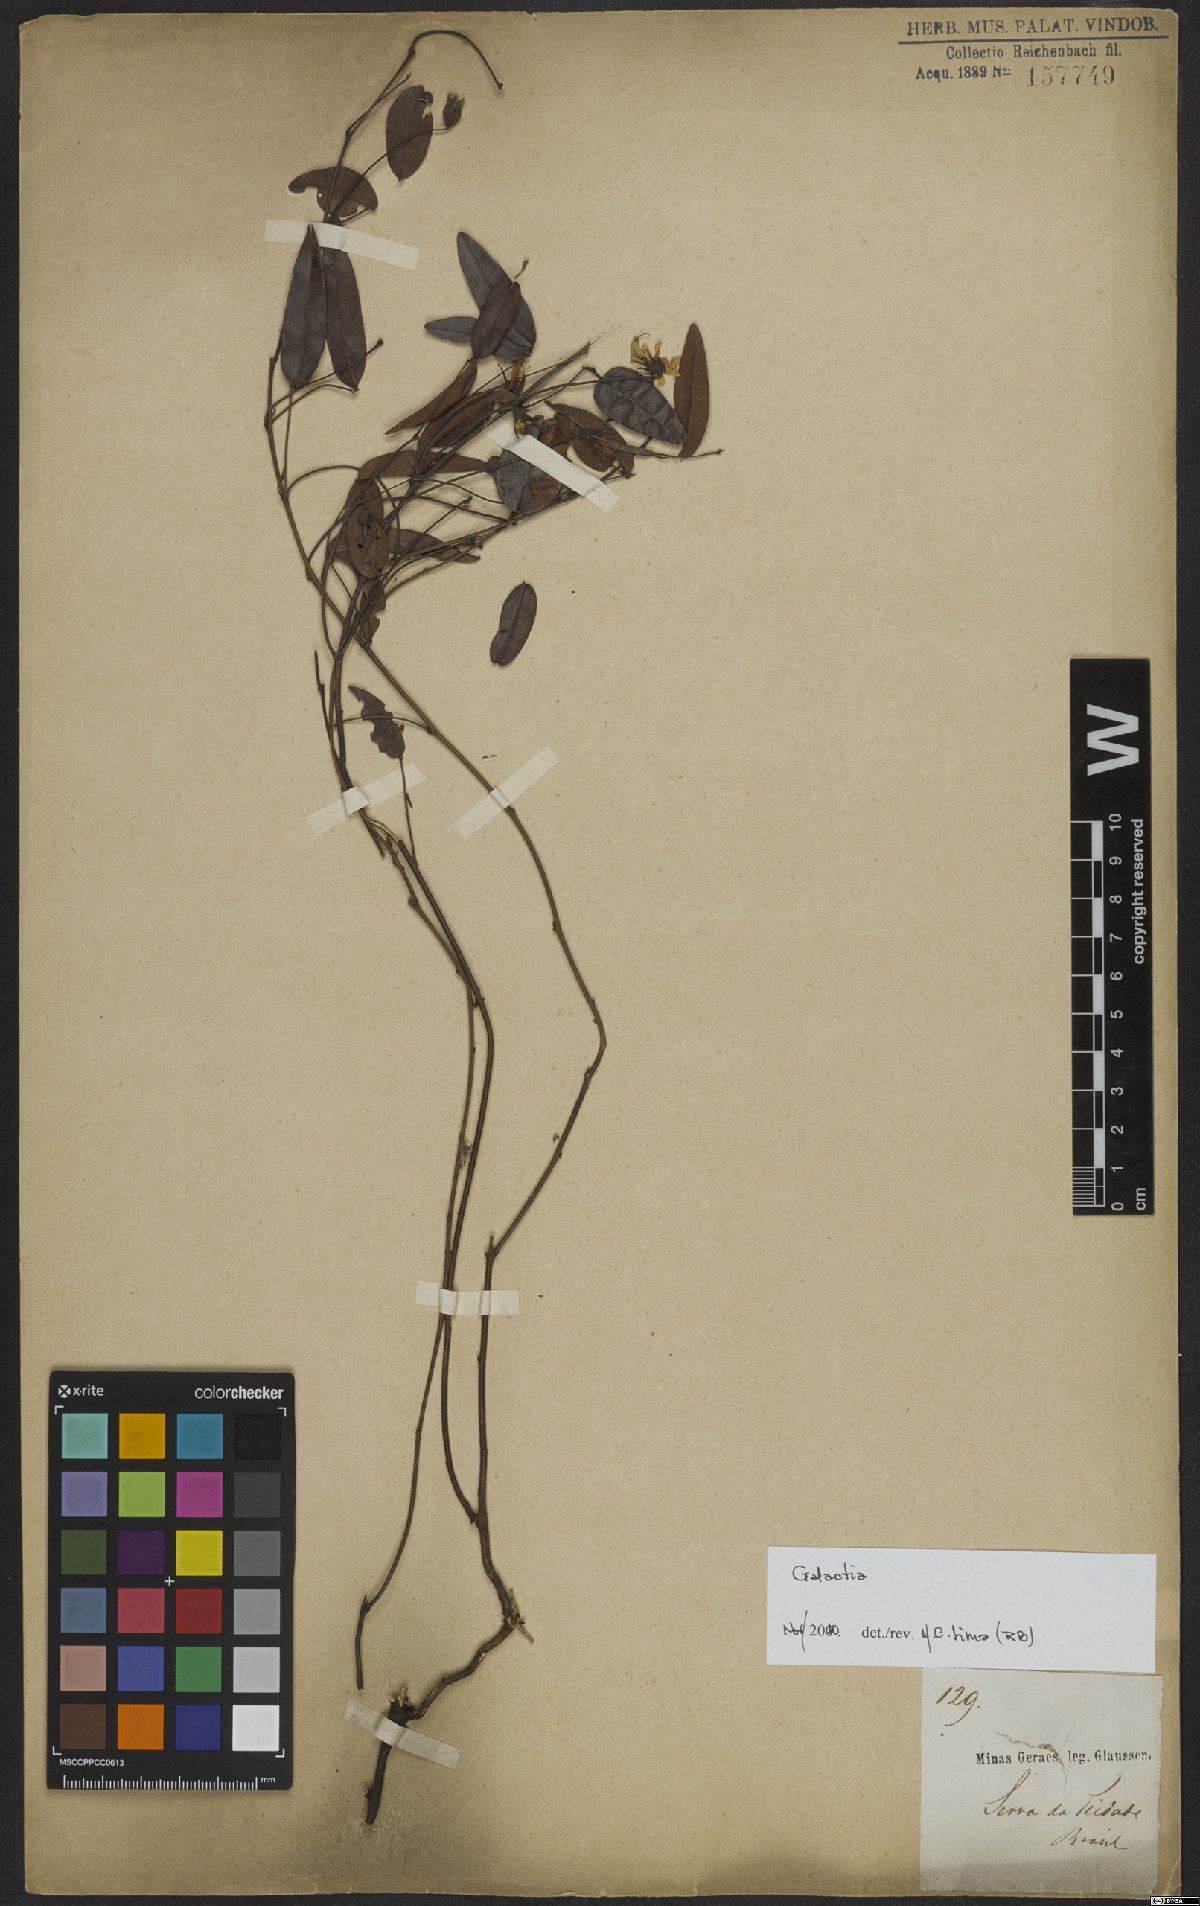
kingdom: Plantae
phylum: Tracheophyta
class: Magnoliopsida
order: Fabales
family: Fabaceae
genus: Galactia
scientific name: Galactia striata
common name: Florida hammock milkpea
